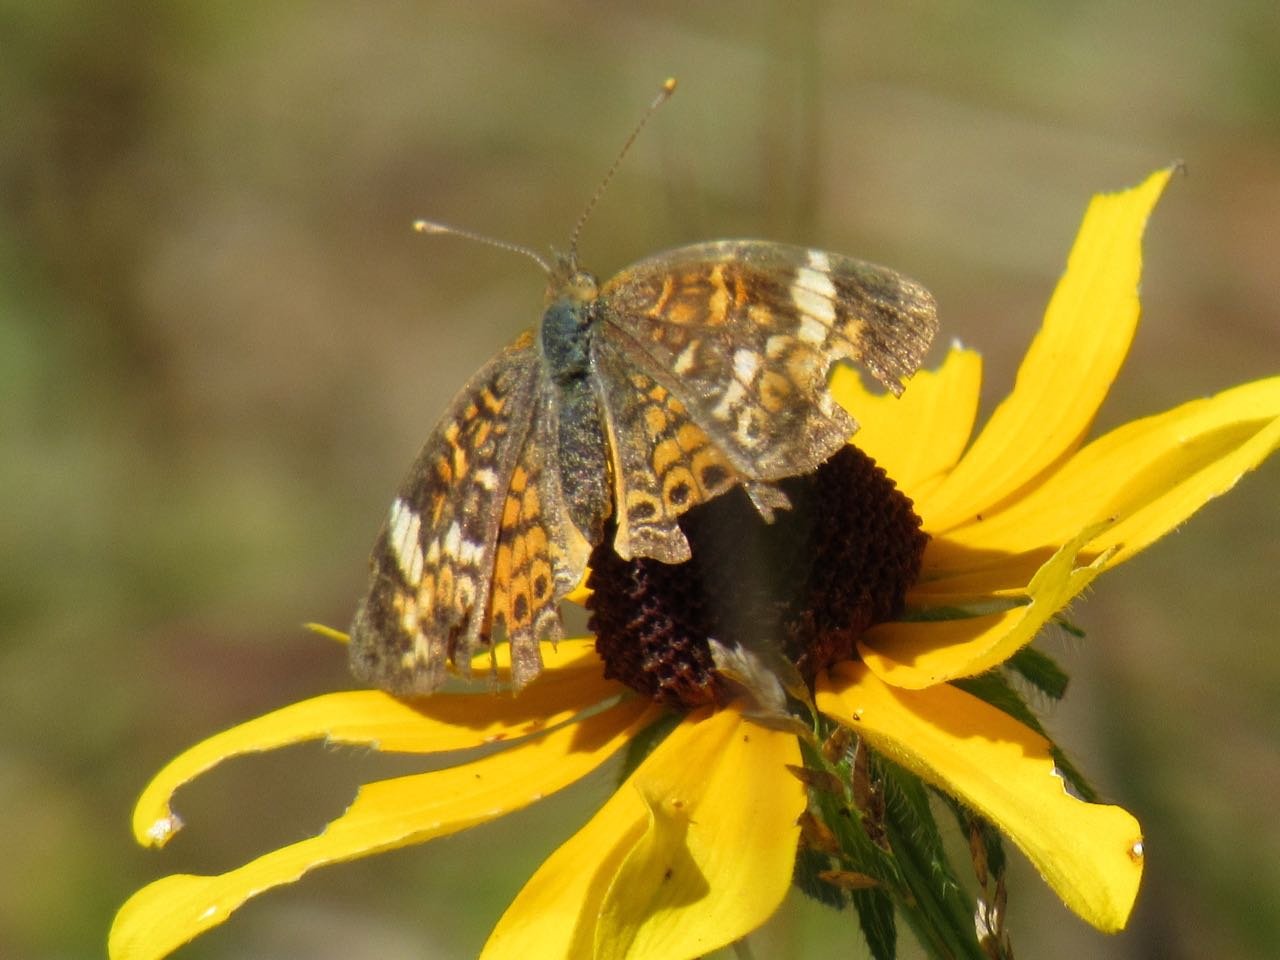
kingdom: Animalia
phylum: Arthropoda
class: Insecta
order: Lepidoptera
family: Nymphalidae
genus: Phyciodes
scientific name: Phyciodes tharos
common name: Pearl Crescent
